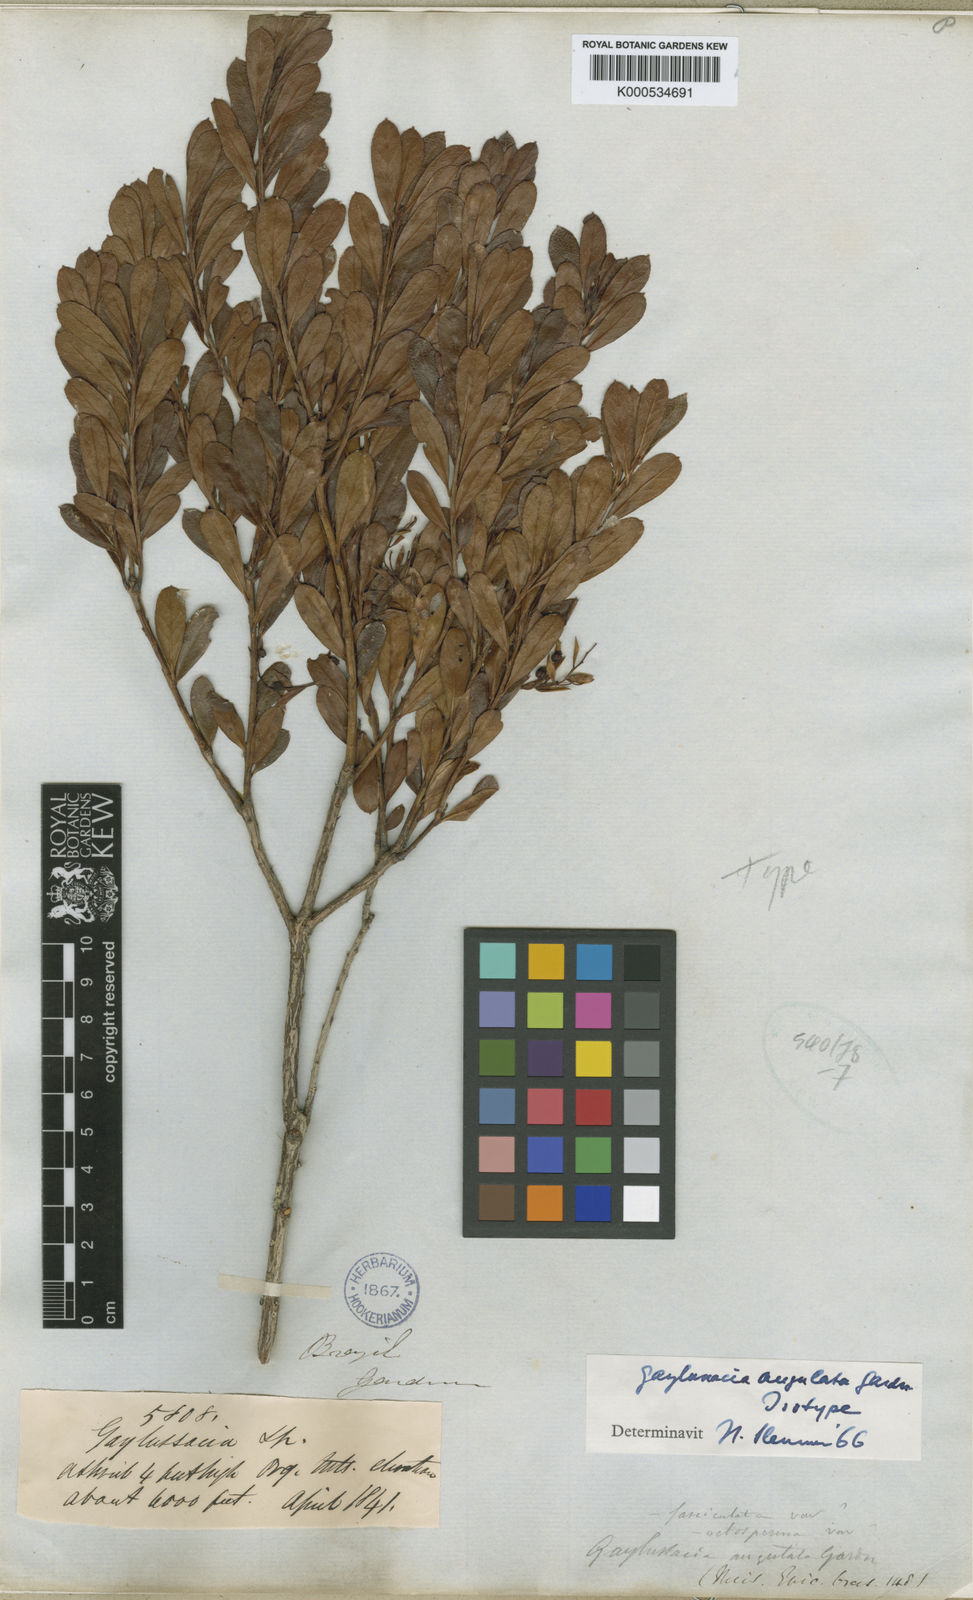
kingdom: Plantae
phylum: Tracheophyta
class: Magnoliopsida
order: Ericales
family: Ericaceae
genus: Gaylussacia
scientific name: Gaylussacia angulata
